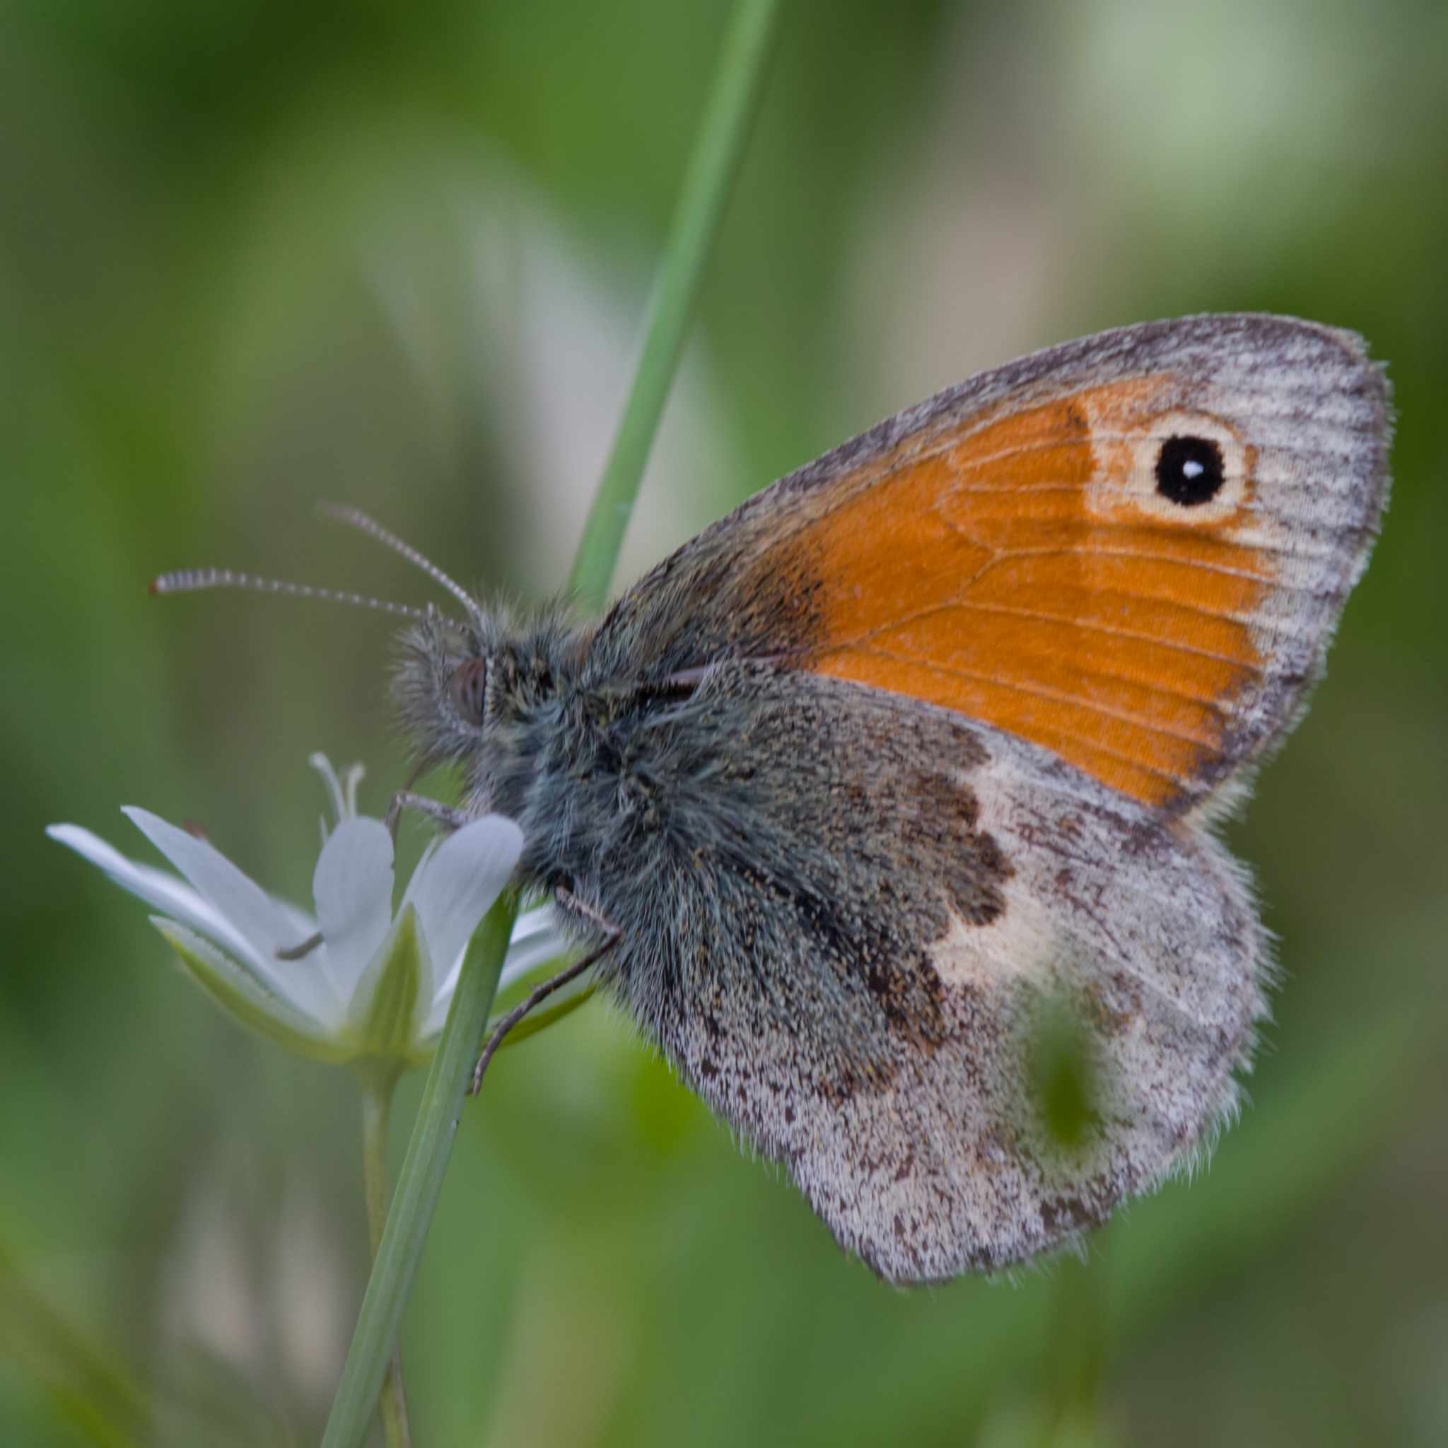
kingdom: Animalia
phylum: Arthropoda
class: Insecta
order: Lepidoptera
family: Nymphalidae
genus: Coenonympha
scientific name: Coenonympha pamphilus
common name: Okkergul randøje
